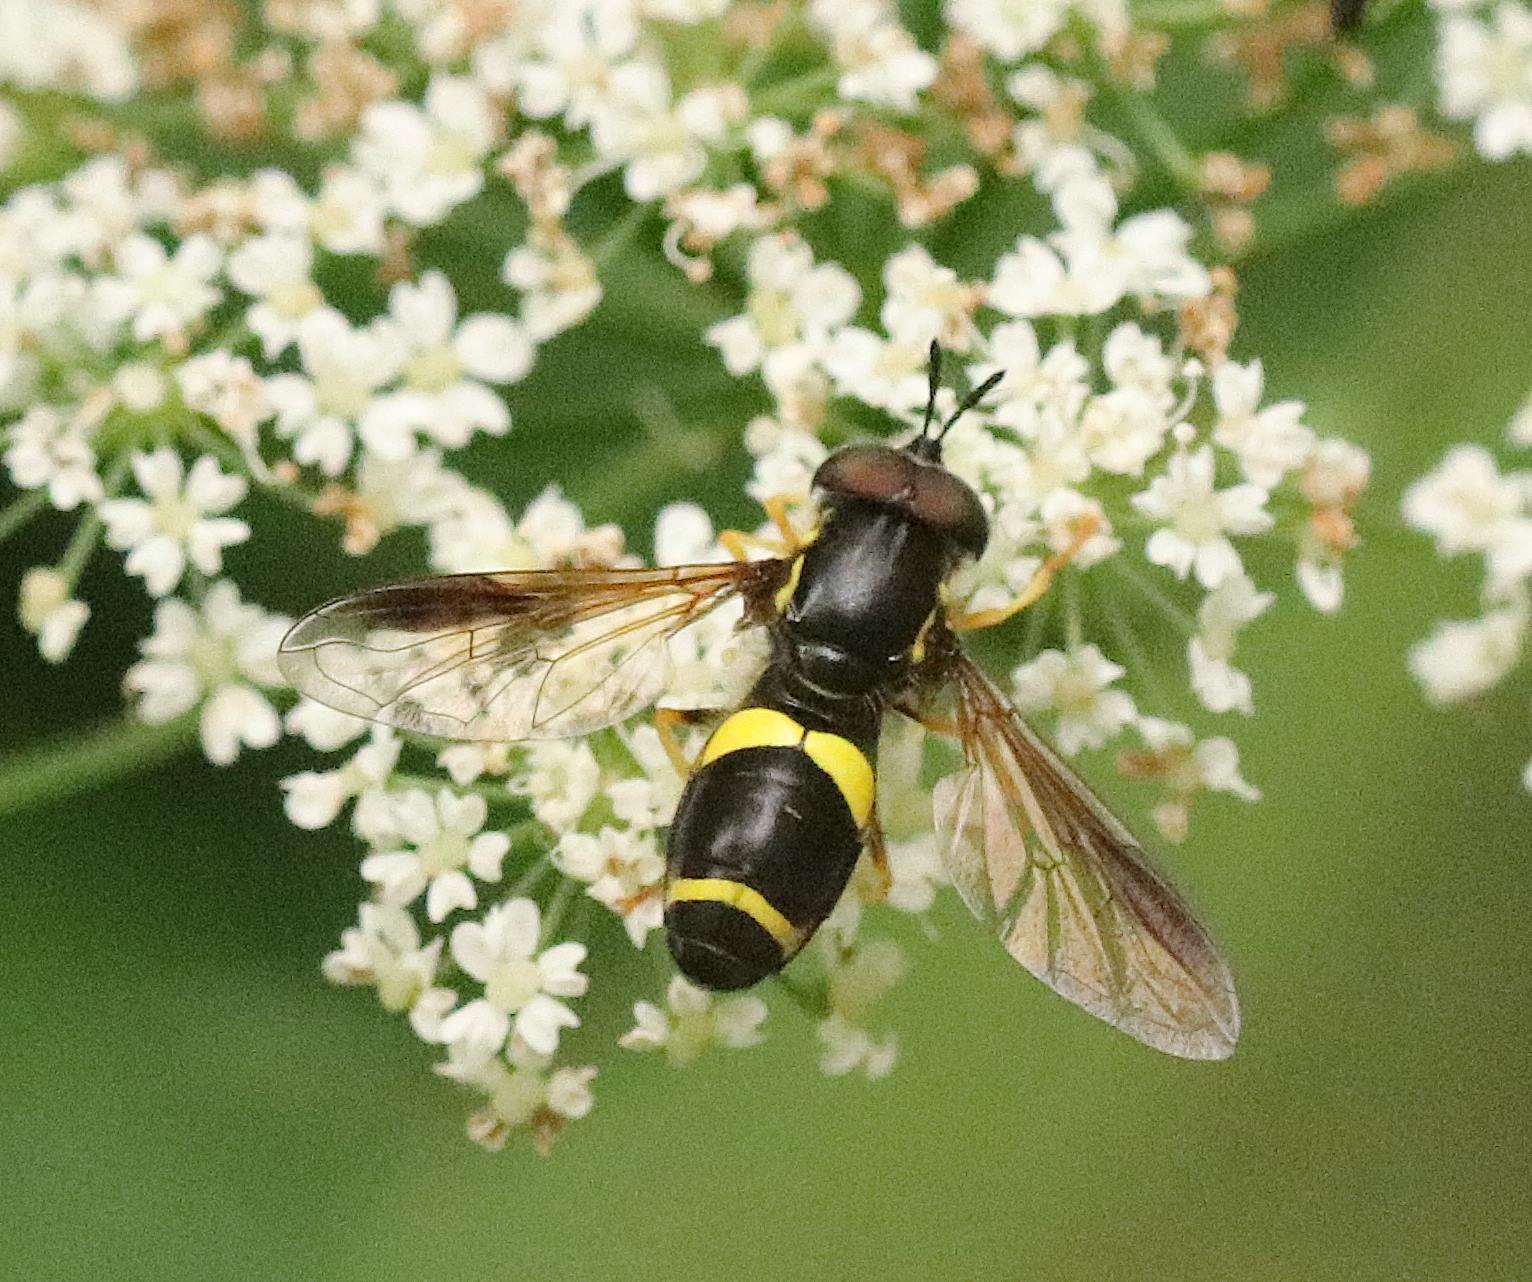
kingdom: Animalia
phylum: Arthropoda
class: Insecta
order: Diptera
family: Syrphidae
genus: Chrysotoxum
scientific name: Chrysotoxum bicincta
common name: Tobåndet hvepsesvirreflue
